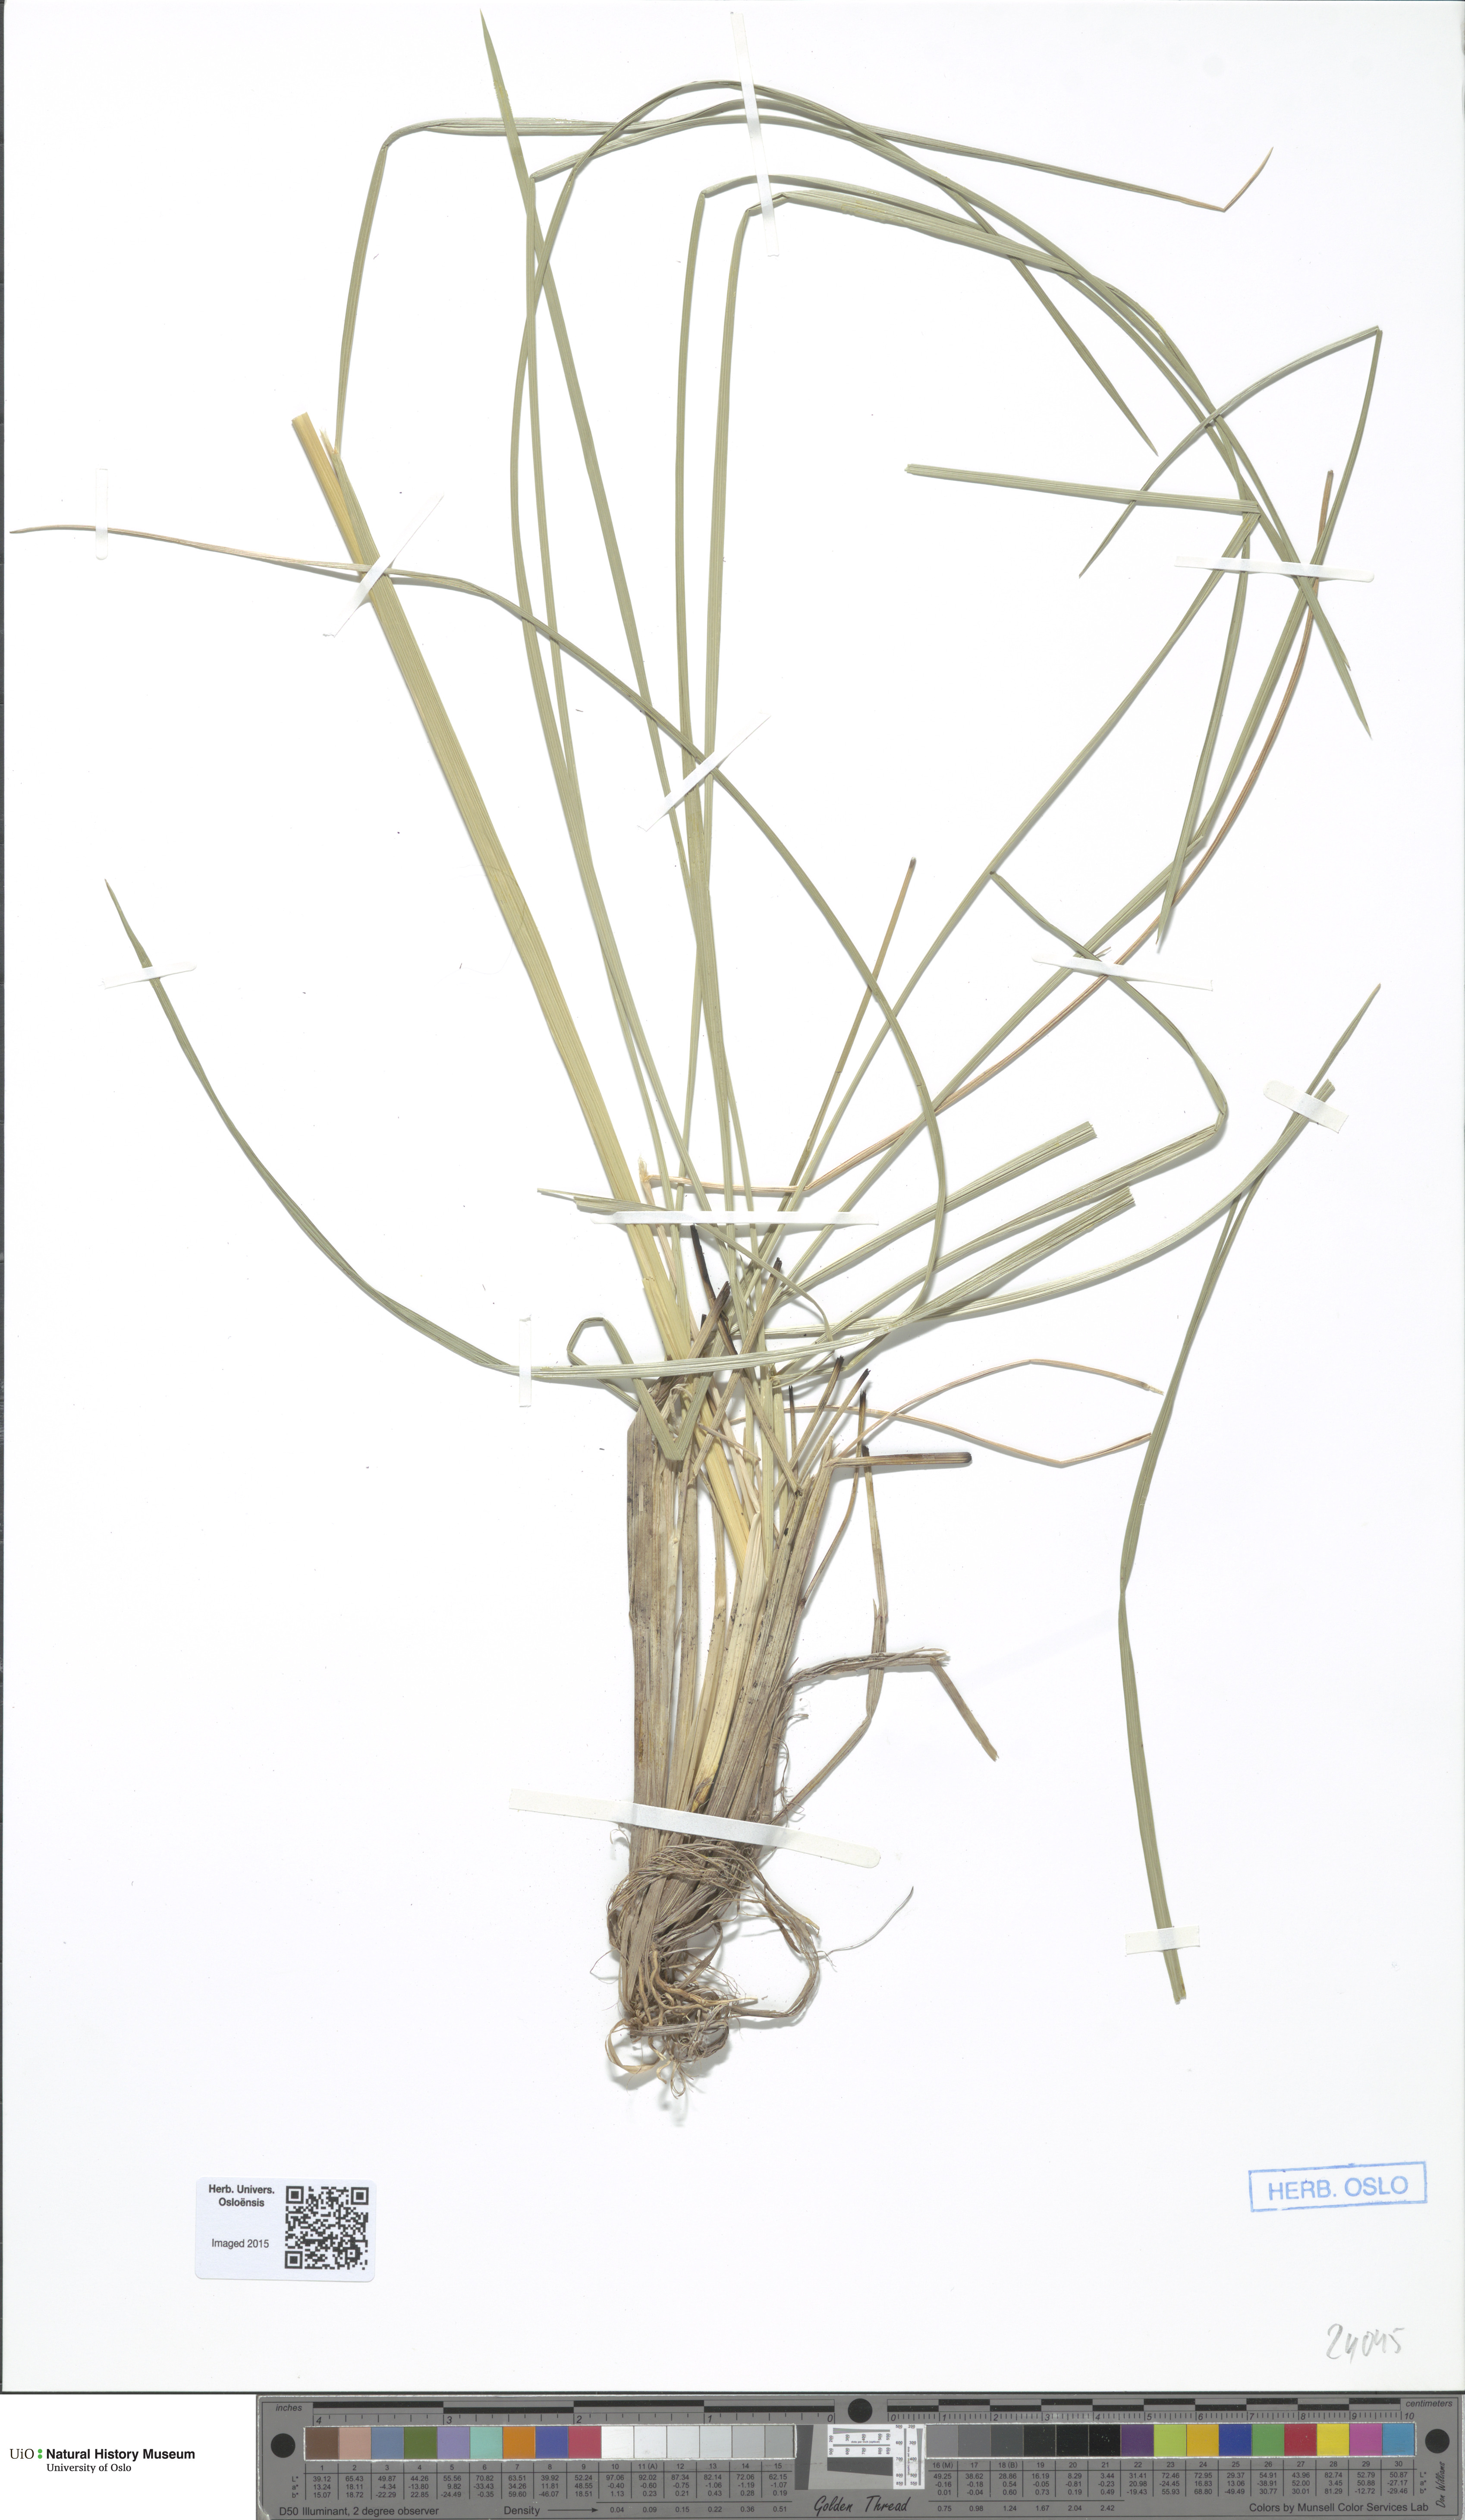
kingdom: Plantae
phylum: Tracheophyta
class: Liliopsida
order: Poales
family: Poaceae
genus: Deschampsia
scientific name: Deschampsia cespitosa
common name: Tufted hair-grass
